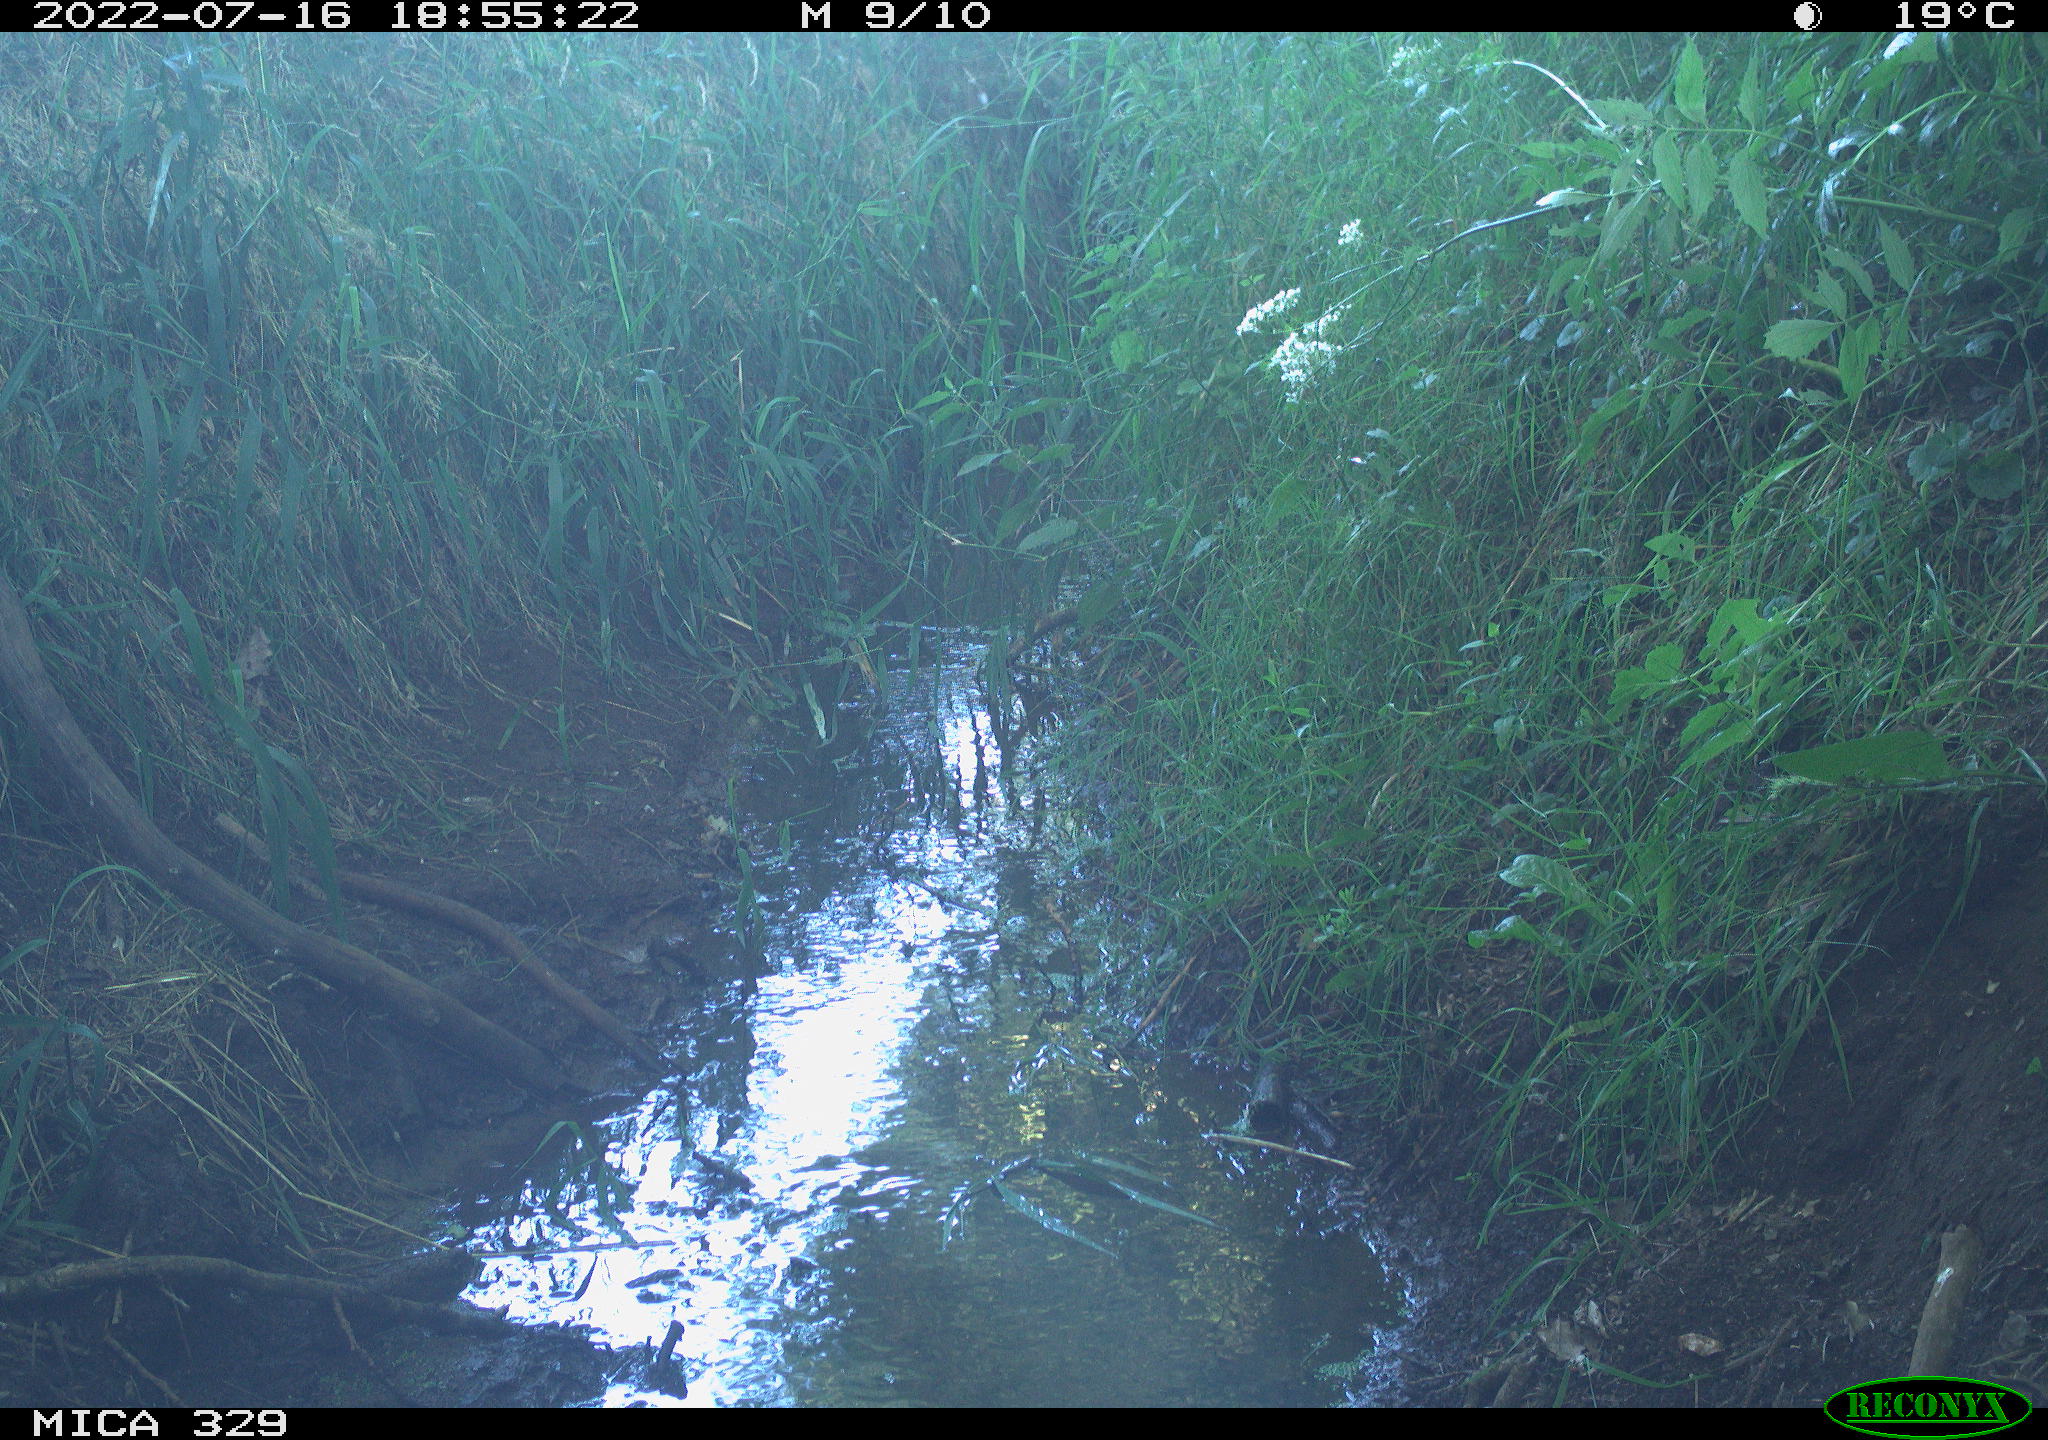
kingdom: Animalia
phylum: Chordata
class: Aves
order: Columbiformes
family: Columbidae
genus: Columba
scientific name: Columba palumbus
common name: Common wood pigeon
